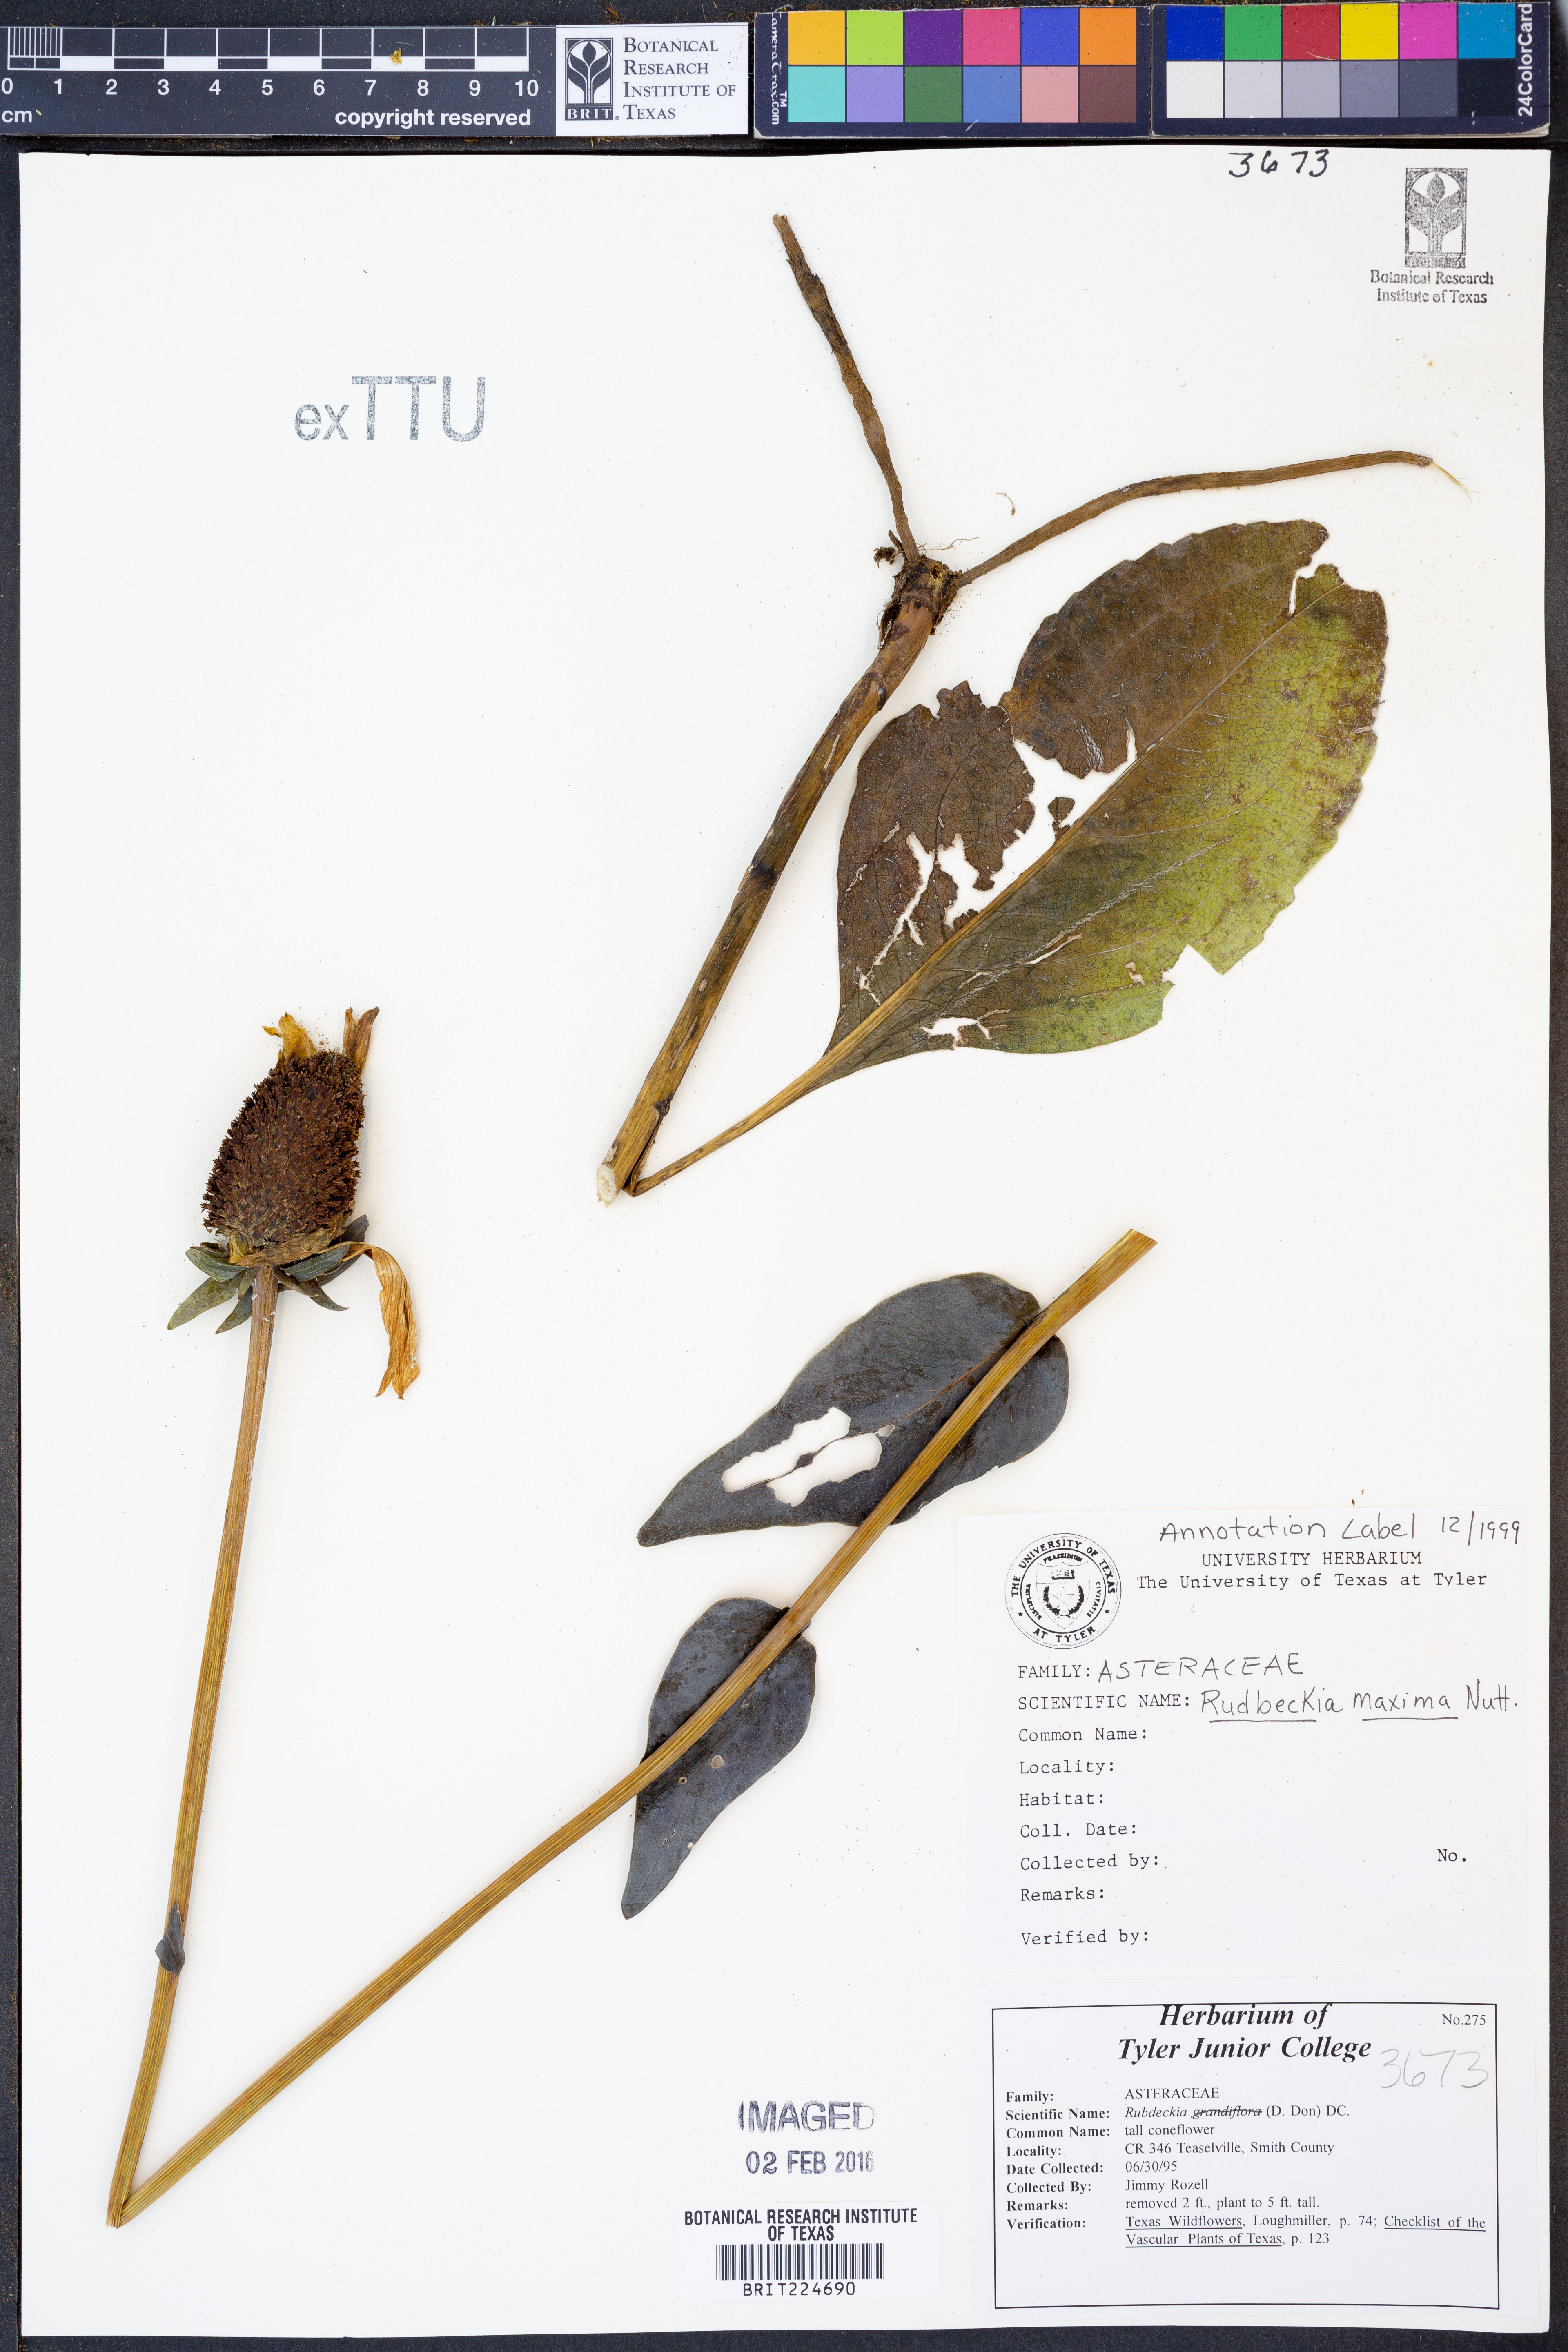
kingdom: Plantae
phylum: Tracheophyta
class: Magnoliopsida
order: Asterales
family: Asteraceae
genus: Rudbeckia
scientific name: Rudbeckia maxima
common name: Cabbage coneflower
